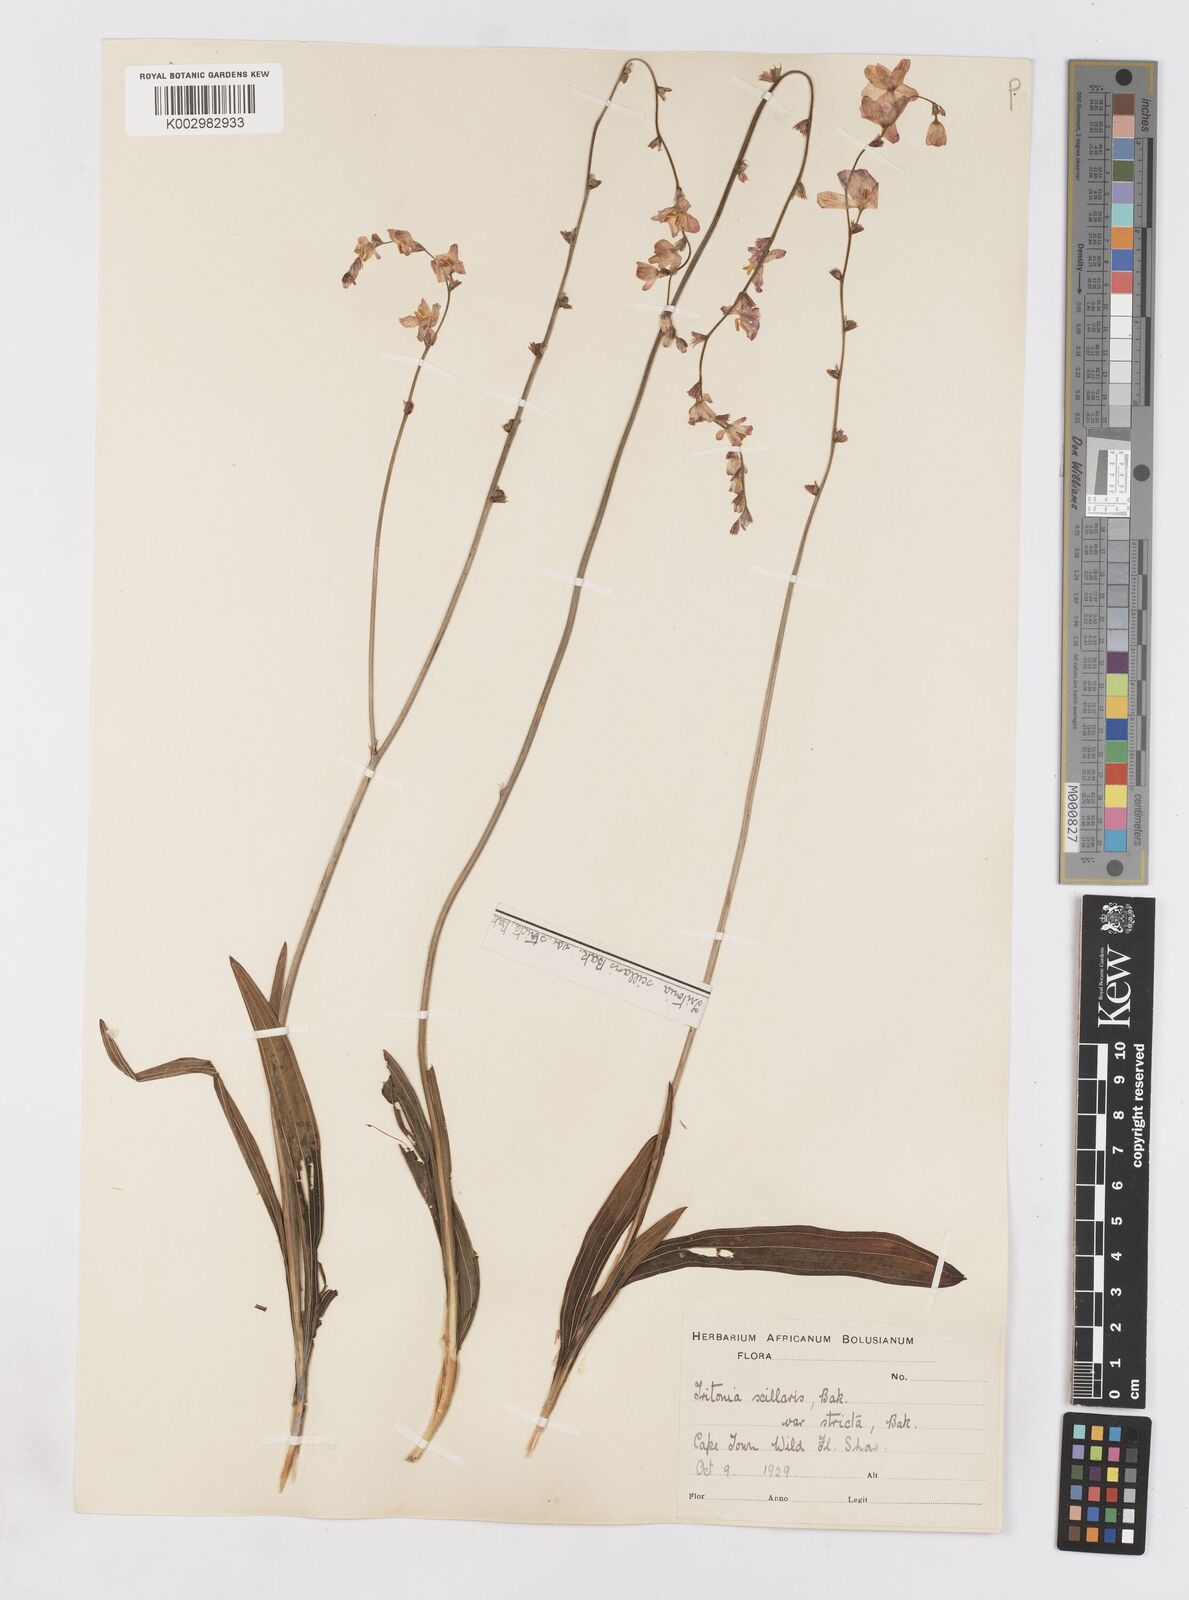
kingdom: Plantae
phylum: Tracheophyta
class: Liliopsida
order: Asparagales
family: Iridaceae
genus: Ixia
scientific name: Ixia scillaris
